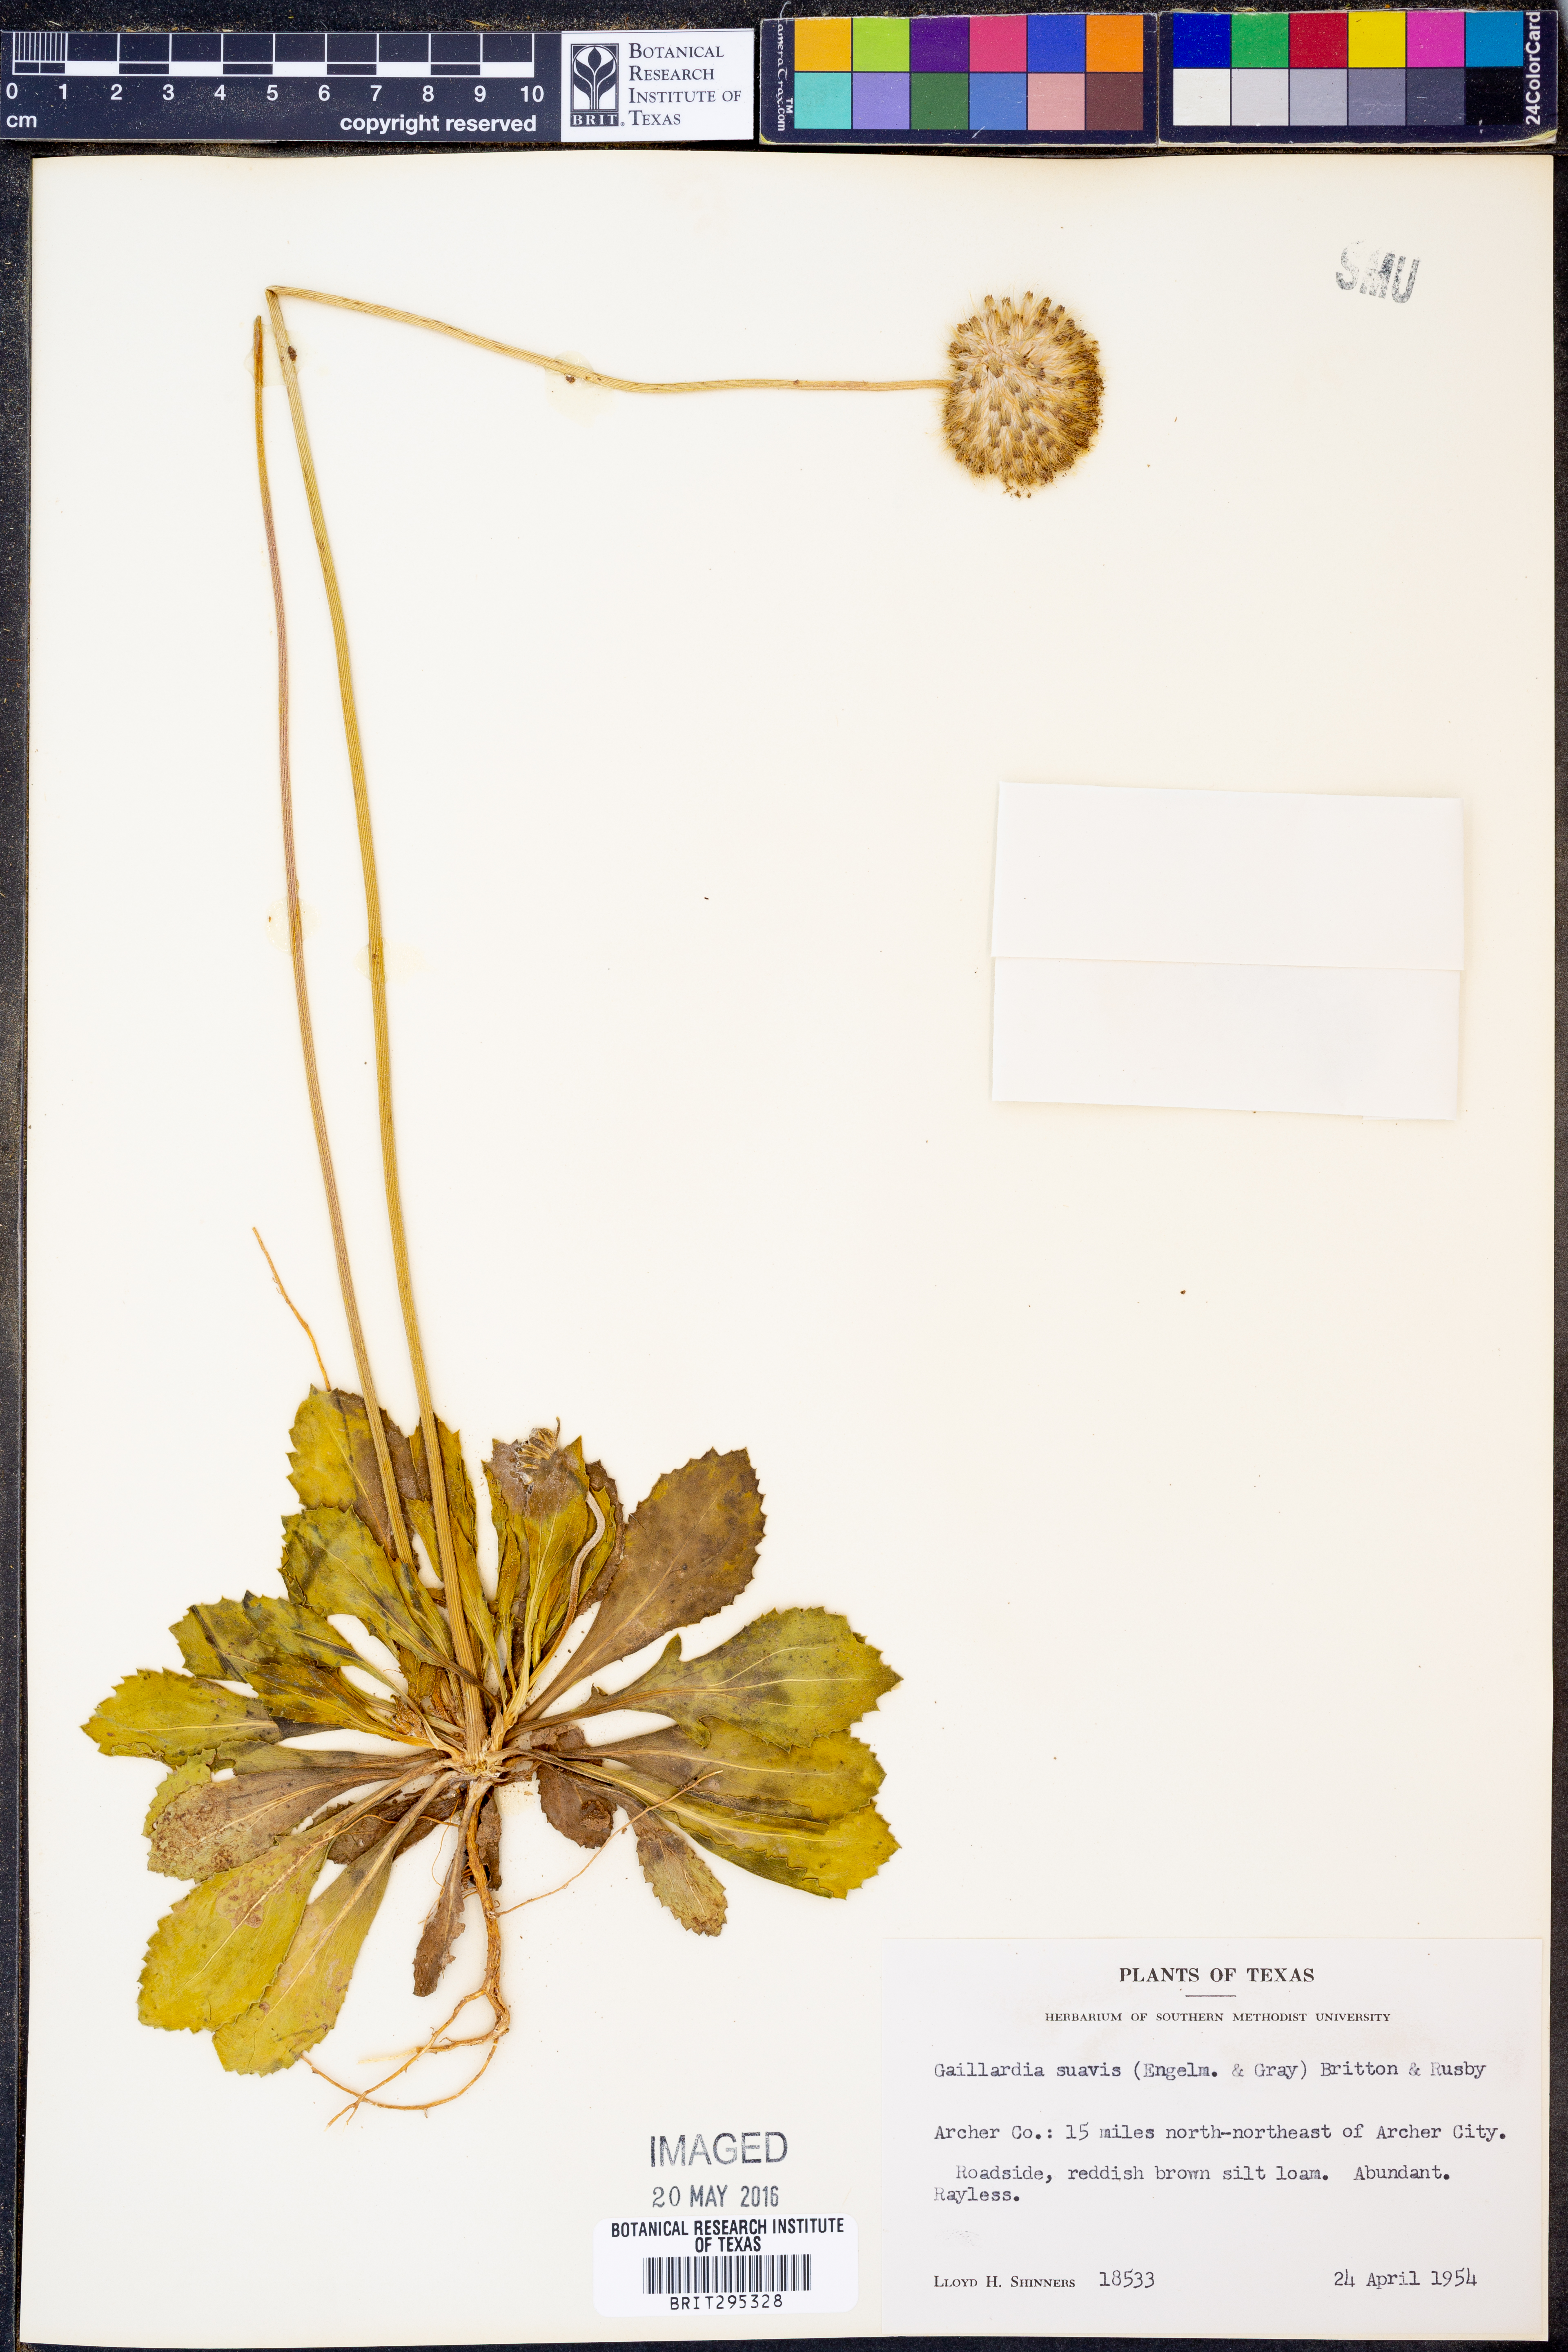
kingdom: Plantae
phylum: Tracheophyta
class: Magnoliopsida
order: Asterales
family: Asteraceae
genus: Gaillardia
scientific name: Gaillardia suavis
